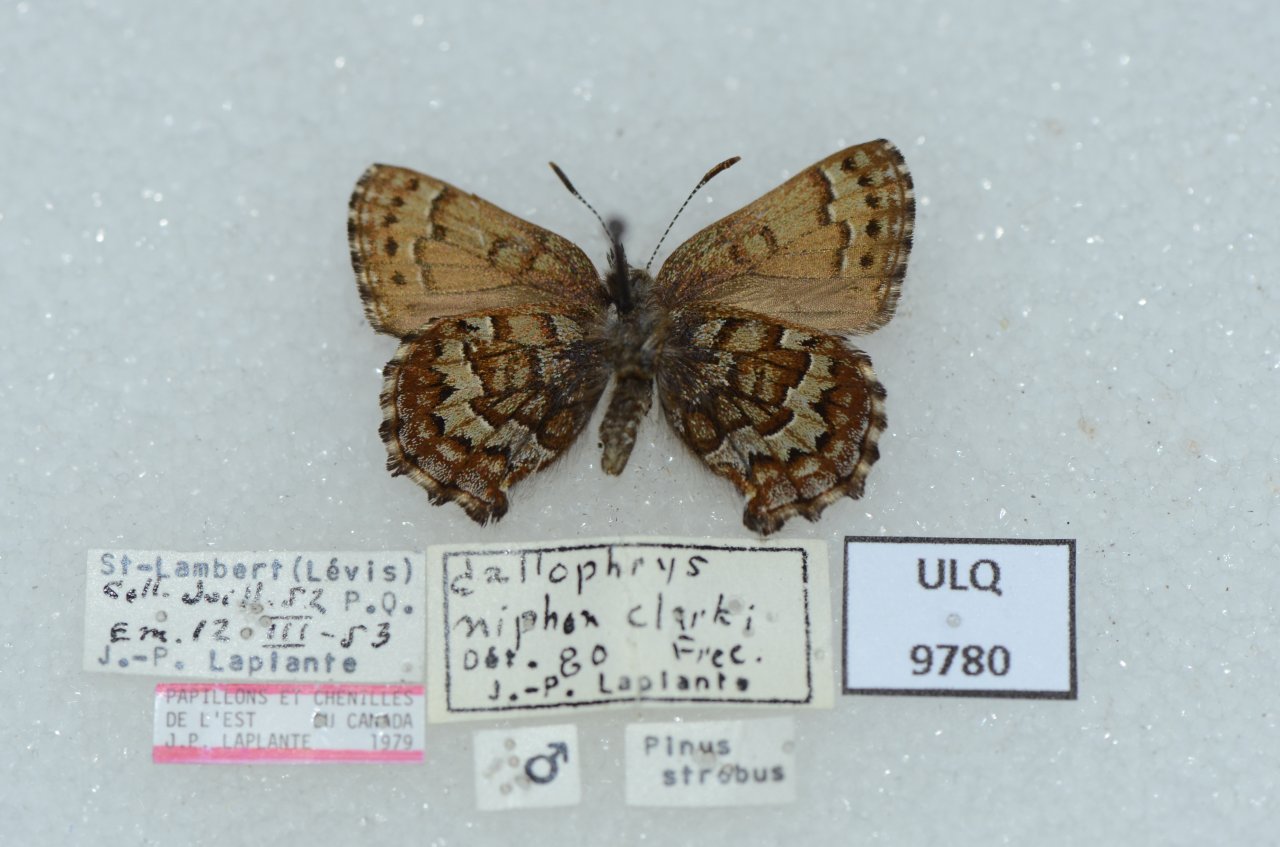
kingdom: Animalia
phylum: Arthropoda
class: Insecta
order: Lepidoptera
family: Lycaenidae
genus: Incisalia
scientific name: Incisalia niphon
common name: Eastern Pine Elfin
